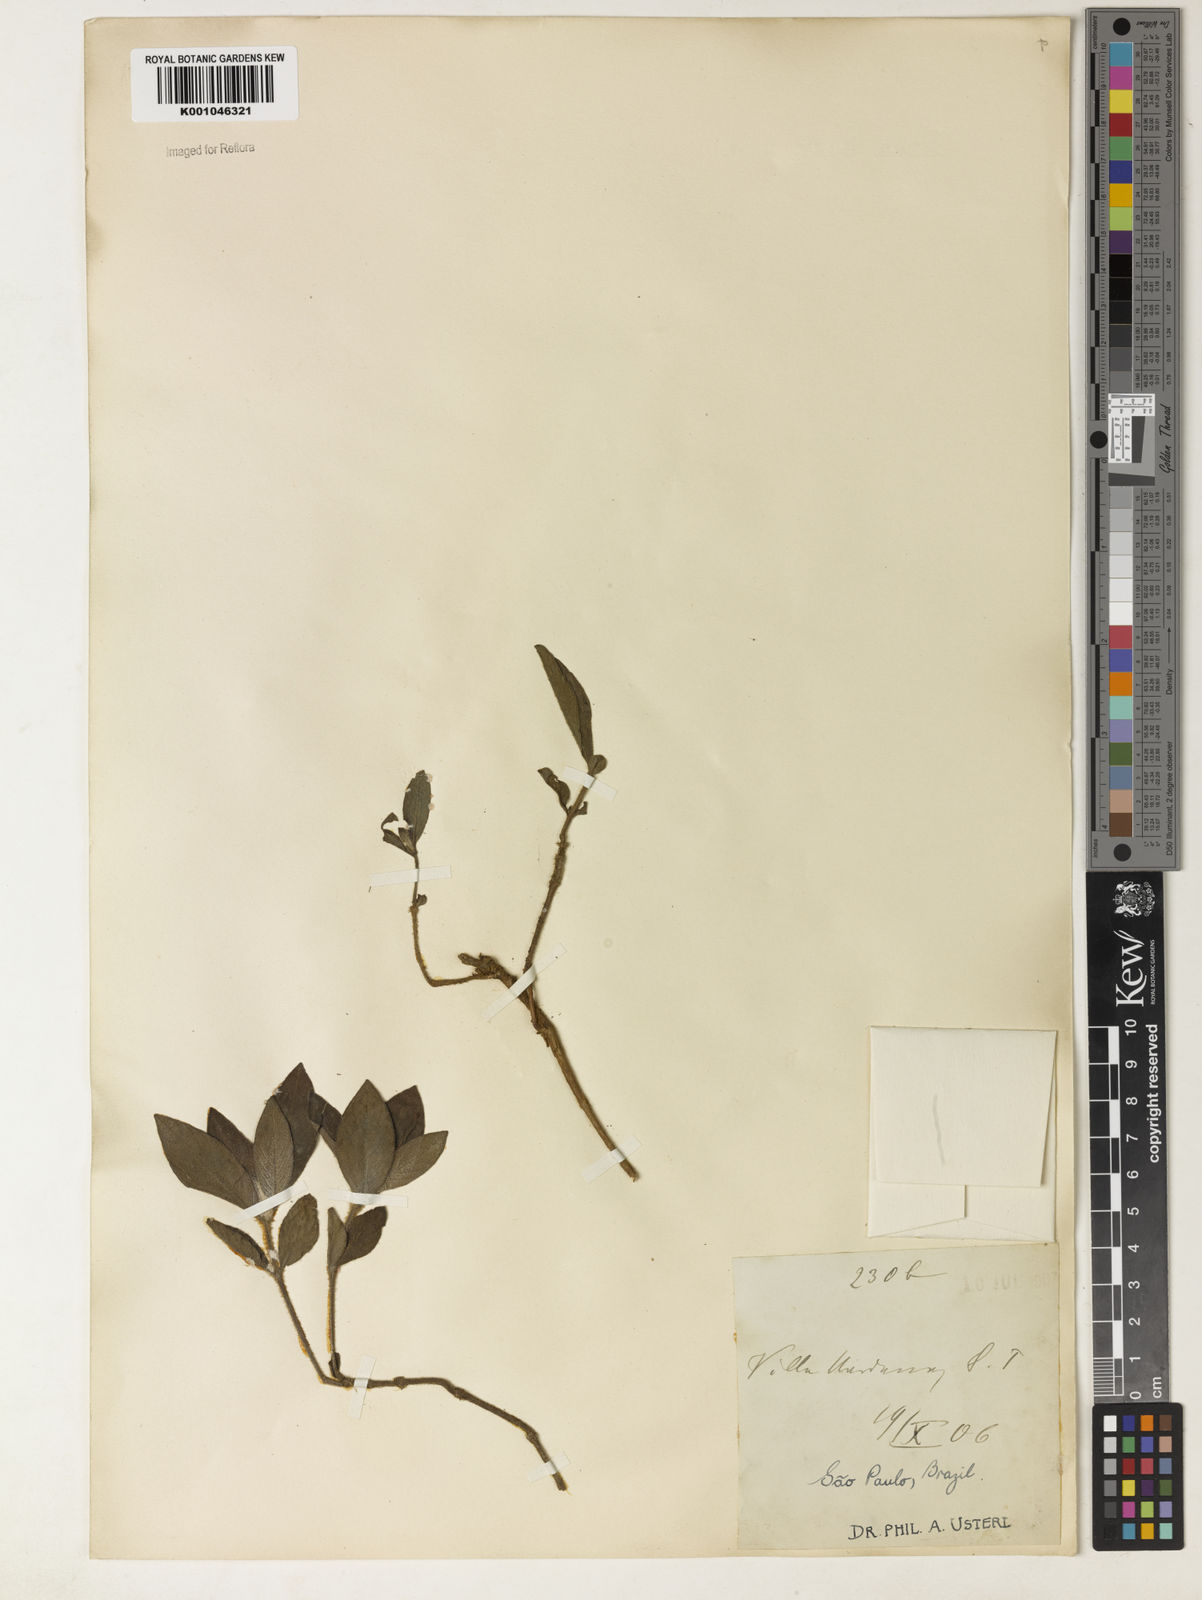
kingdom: Plantae
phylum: Tracheophyta
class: Magnoliopsida
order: Lamiales
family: Acanthaceae
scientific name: Acanthaceae
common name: Acanthaceae
